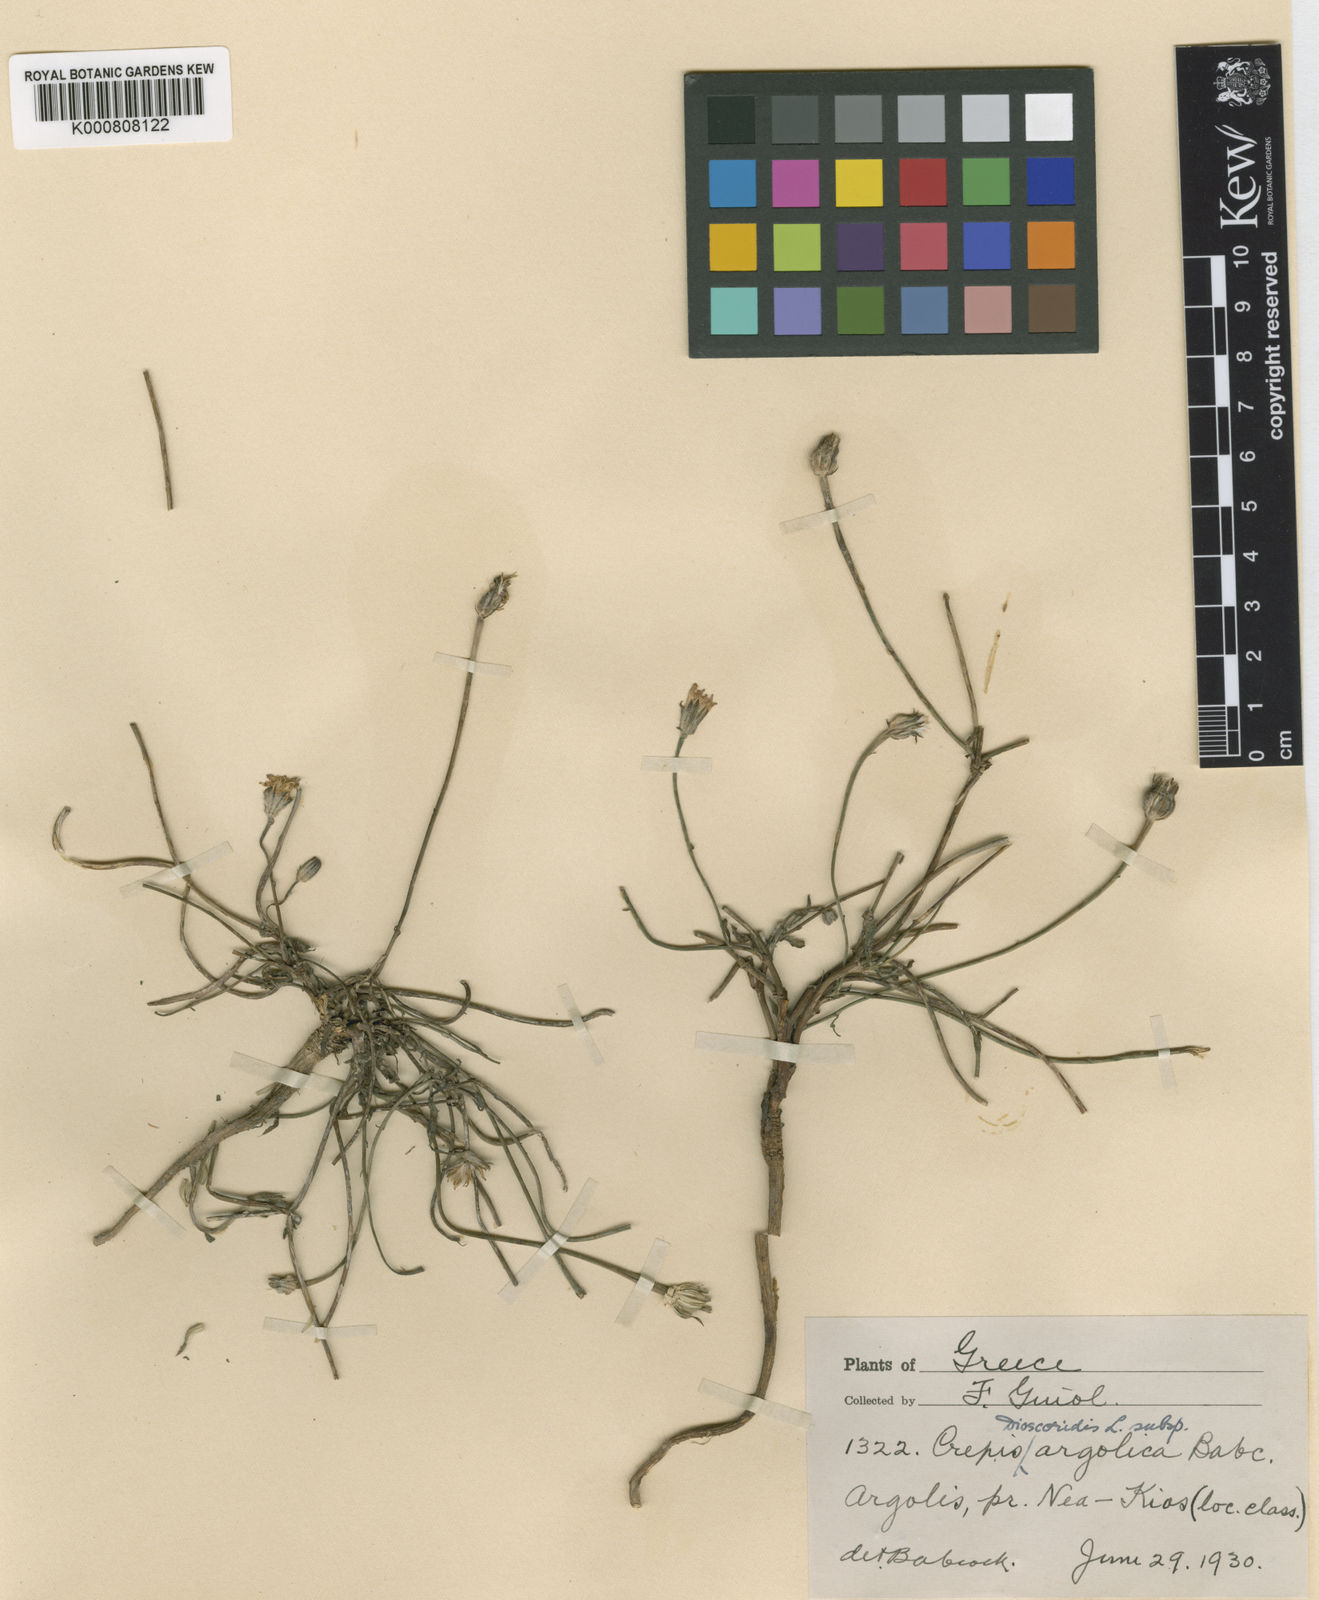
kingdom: Plantae
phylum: Tracheophyta
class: Magnoliopsida
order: Asterales
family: Asteraceae
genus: Crepis
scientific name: Crepis dioscoridis
